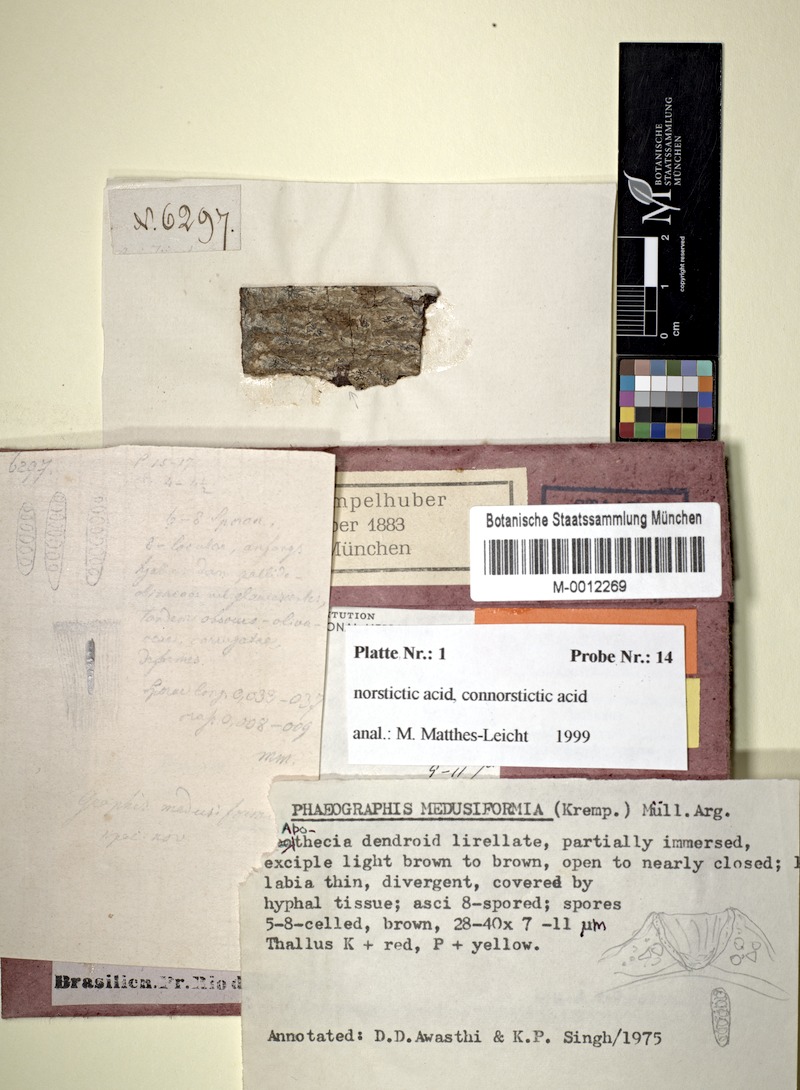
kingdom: Fungi
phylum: Ascomycota
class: Lecanoromycetes
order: Ostropales
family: Graphidaceae
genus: Phaeographis
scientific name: Phaeographis
